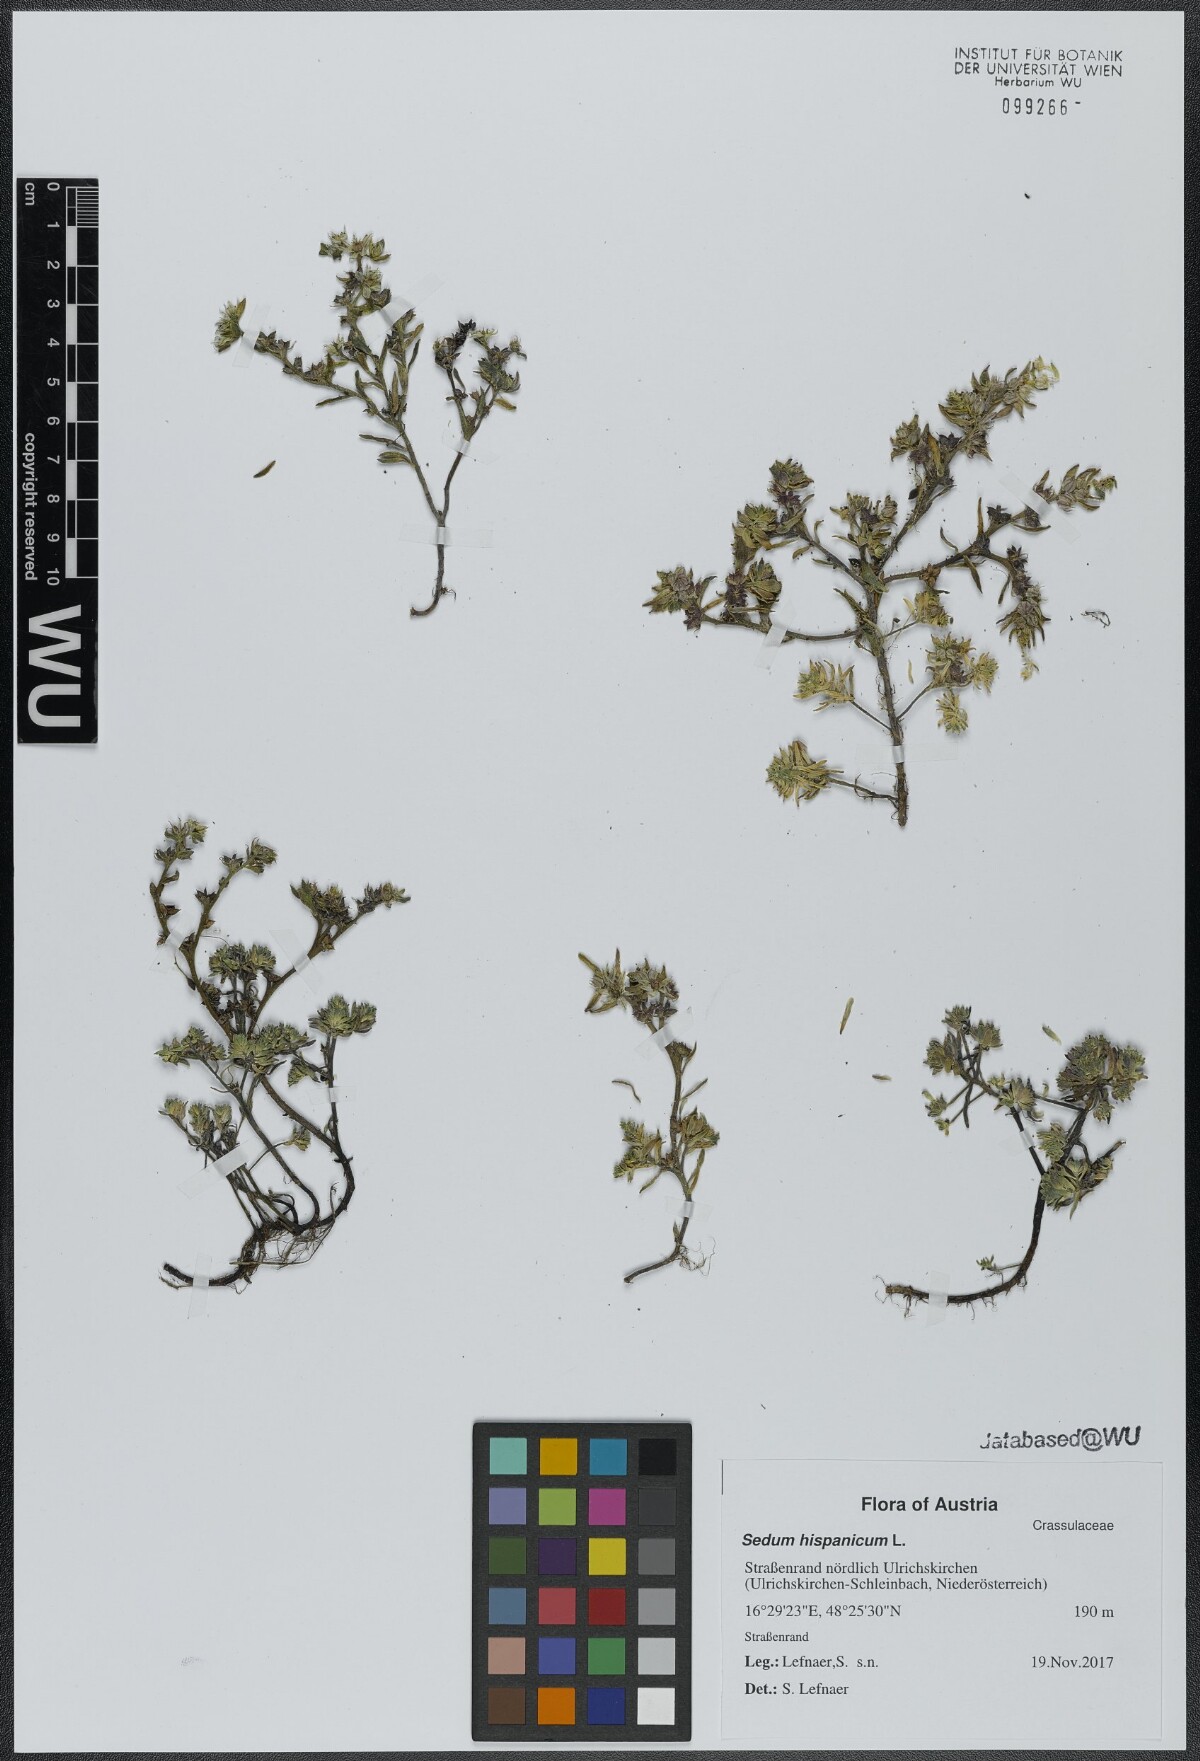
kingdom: Plantae
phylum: Tracheophyta
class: Magnoliopsida
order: Saxifragales
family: Crassulaceae
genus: Sedum
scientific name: Sedum hispanicum
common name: Spanish stonecrop
